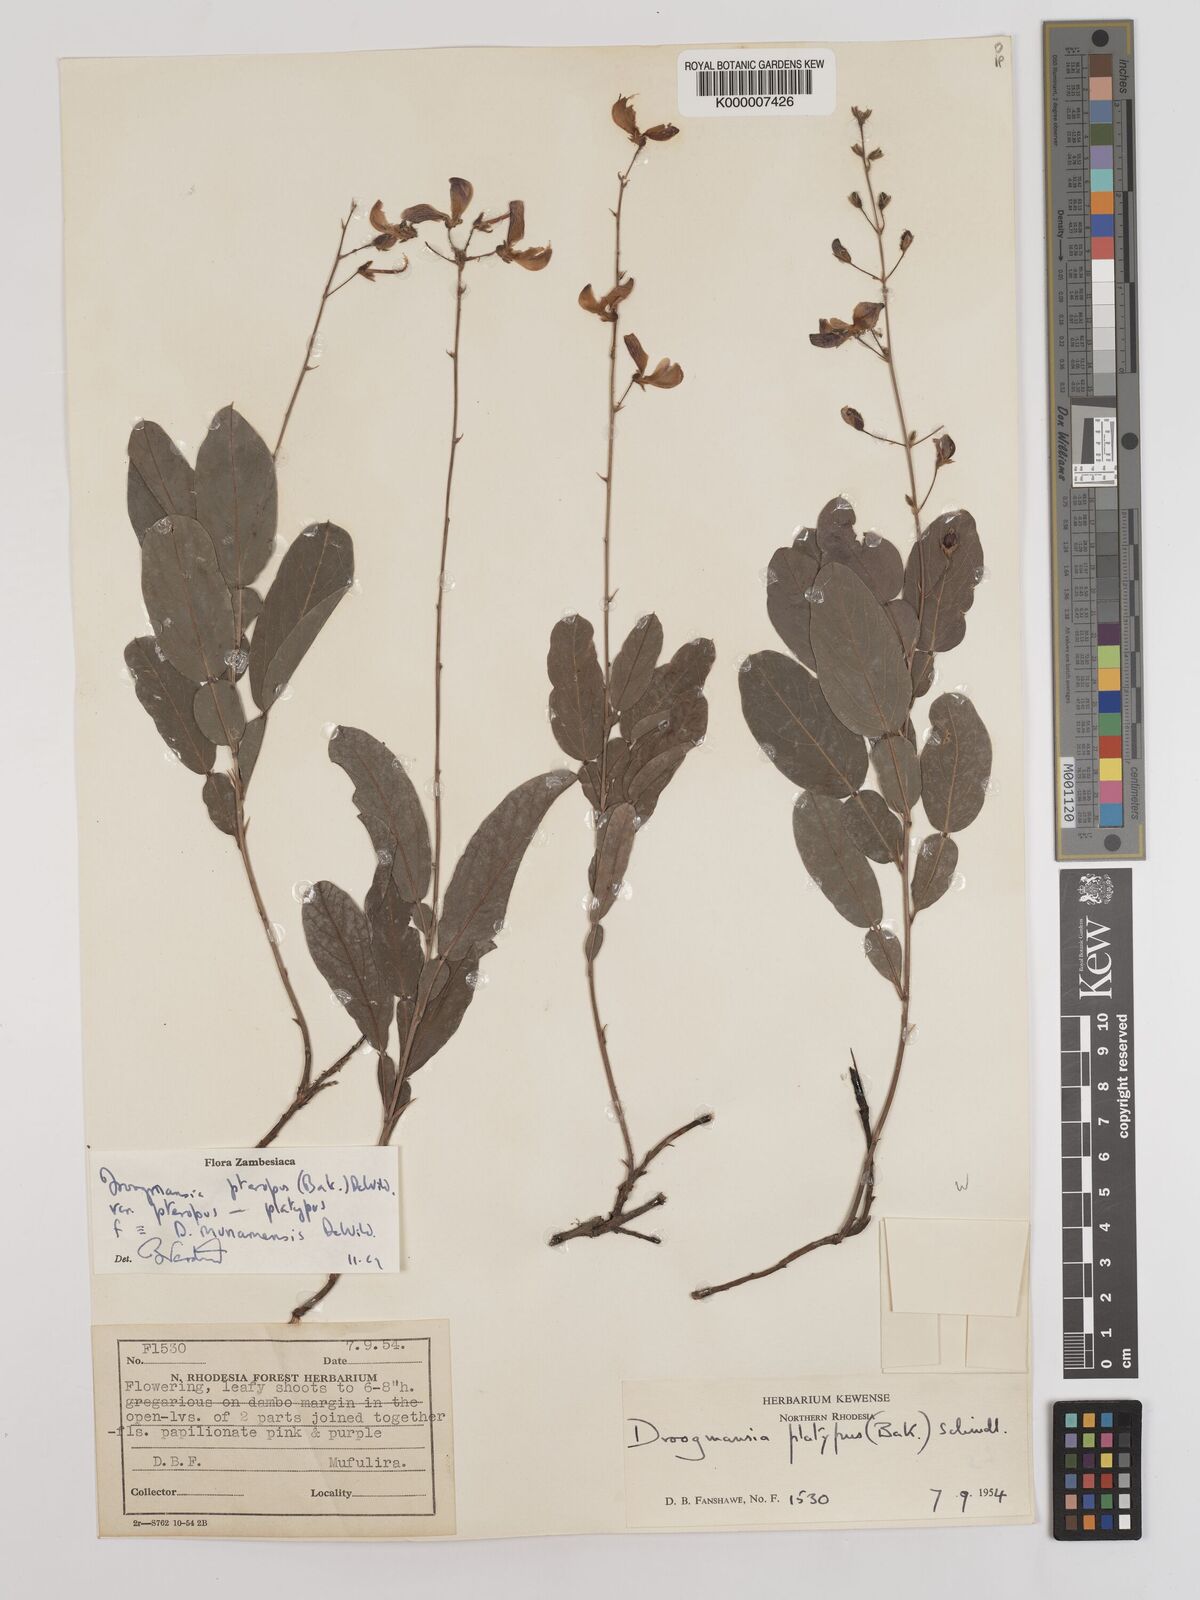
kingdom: Plantae
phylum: Tracheophyta
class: Magnoliopsida
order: Fabales
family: Fabaceae
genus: Droogmansia
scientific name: Droogmansia pteropus
